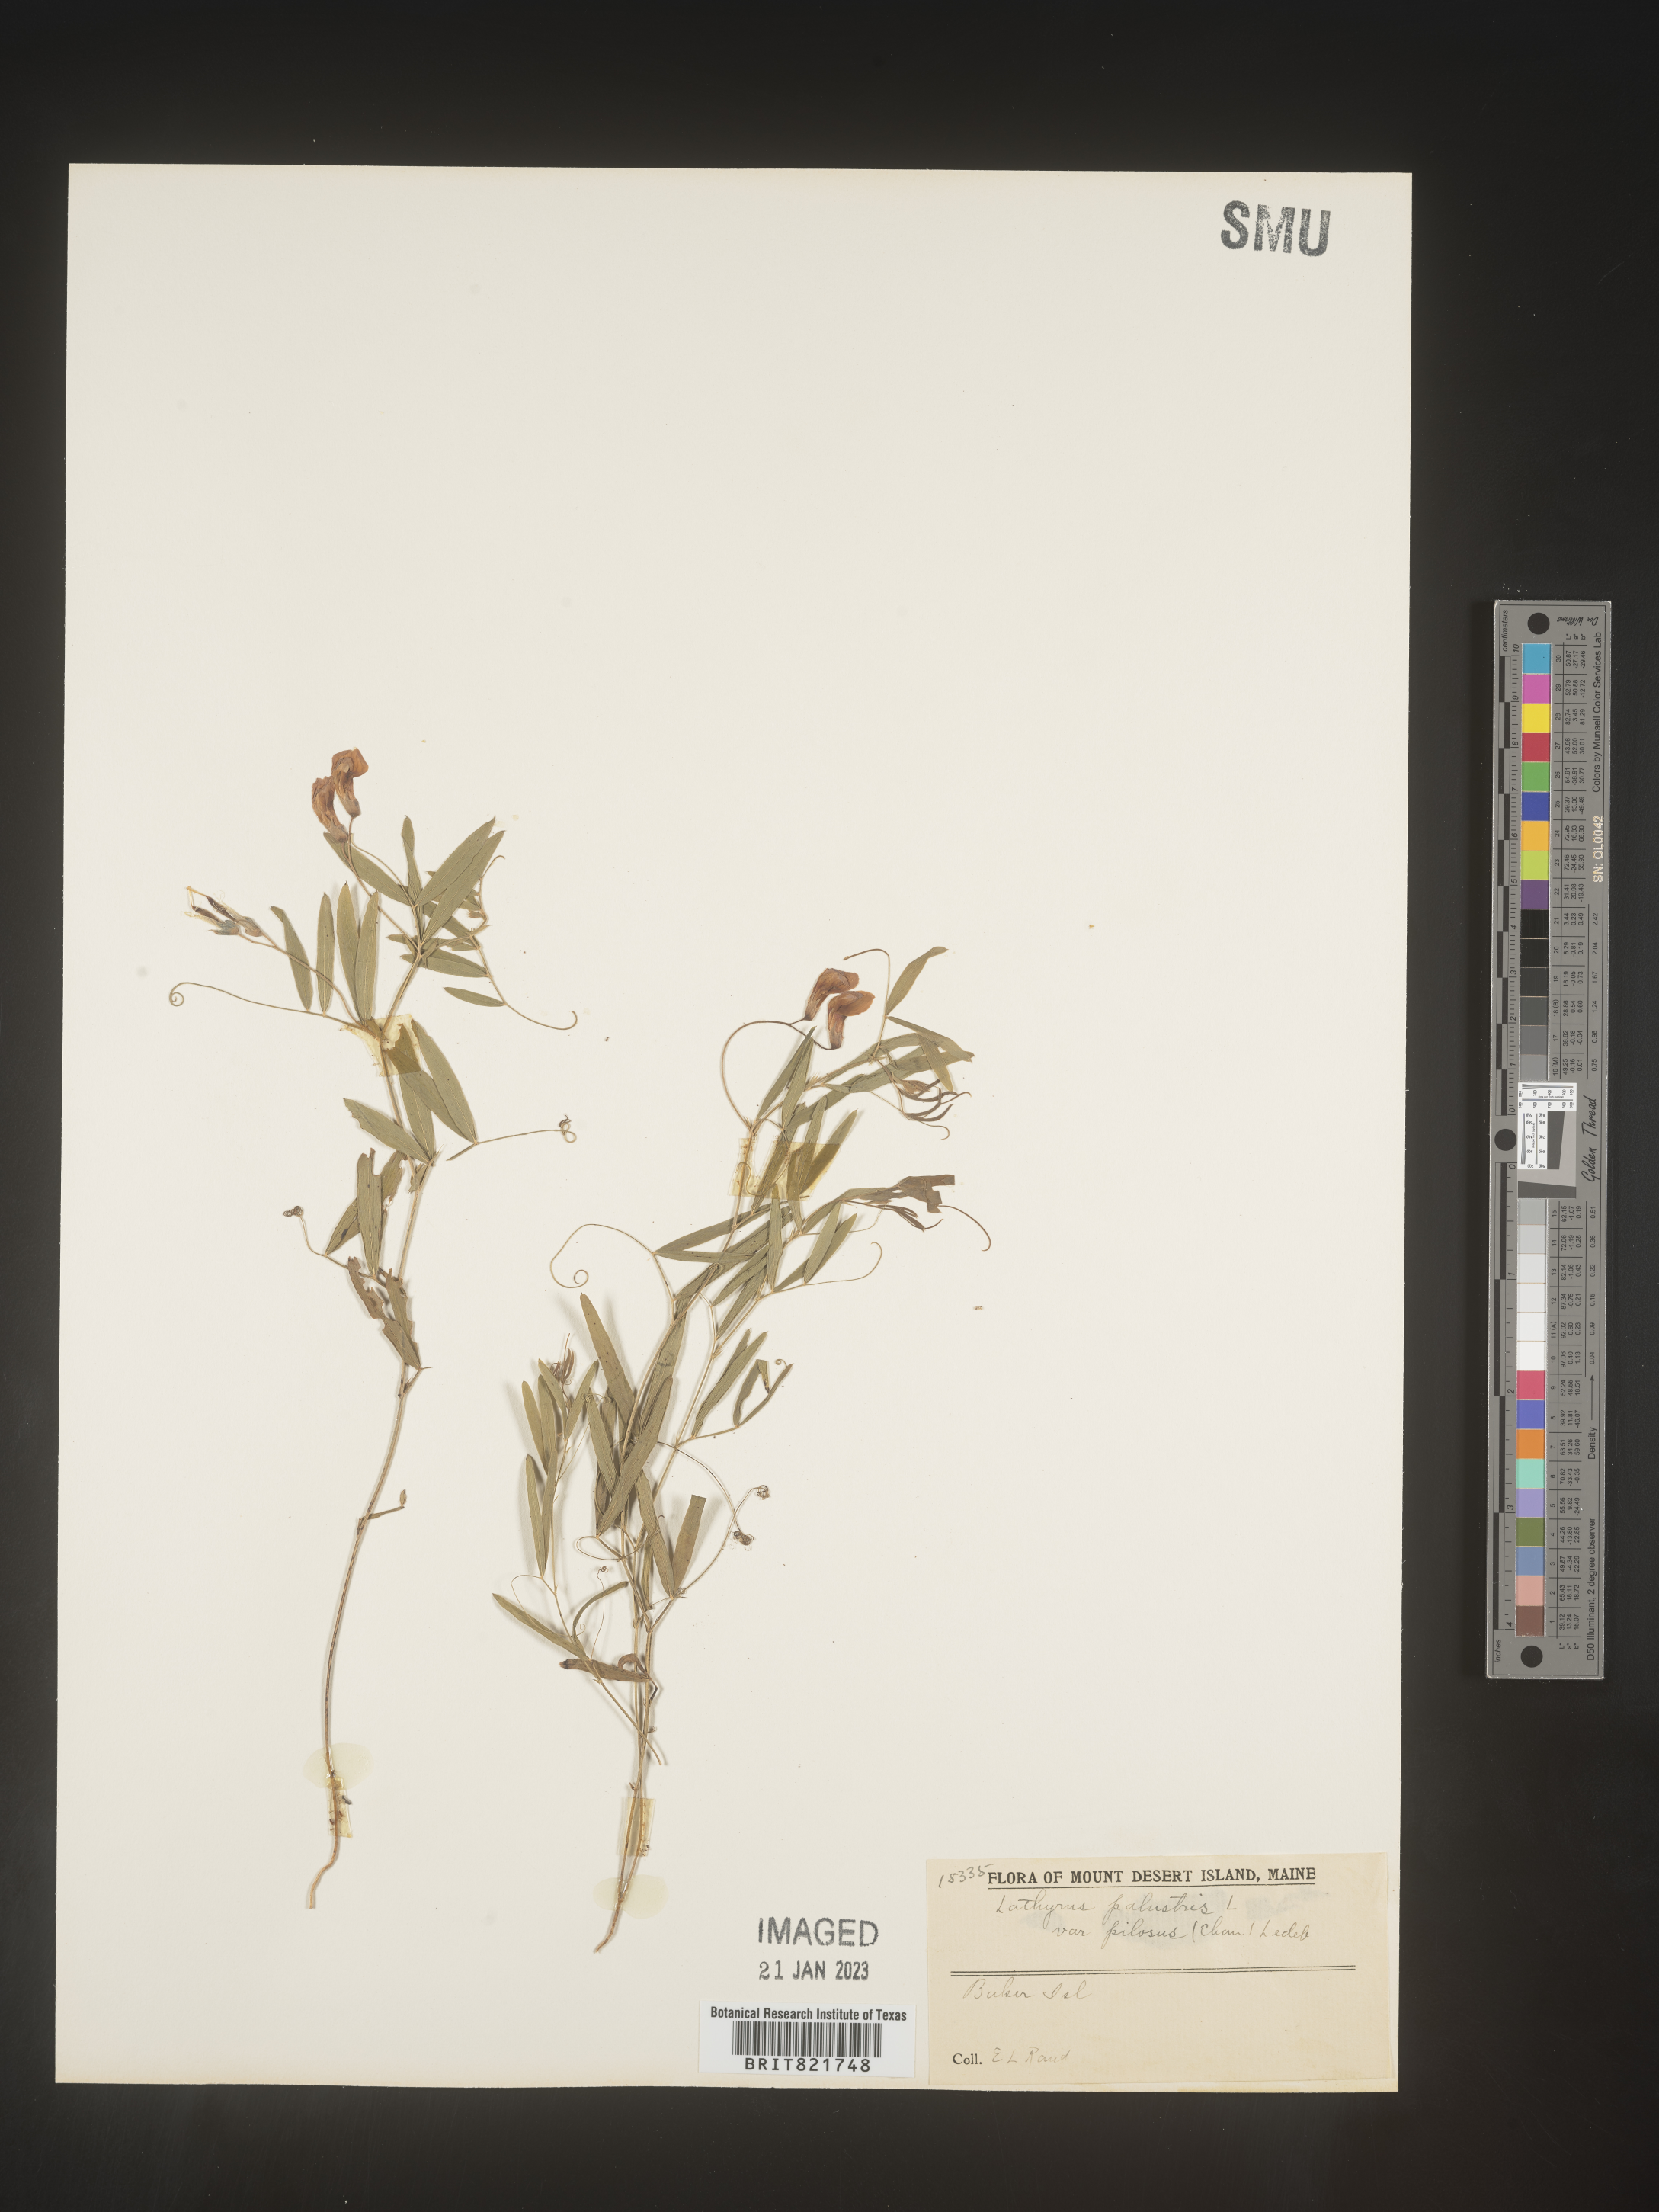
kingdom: Plantae
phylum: Tracheophyta
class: Magnoliopsida
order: Fabales
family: Fabaceae
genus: Lathyrus
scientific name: Lathyrus palustris
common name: Marsh pea
